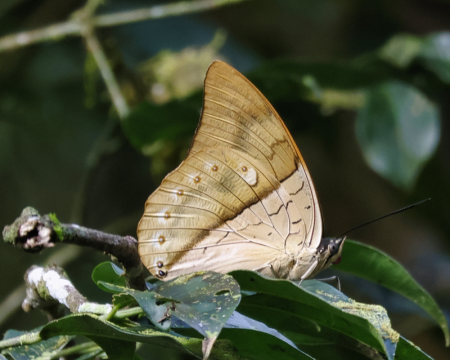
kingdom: Animalia
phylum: Arthropoda
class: Insecta
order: Lepidoptera
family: Nymphalidae
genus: Prepona
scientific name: Prepona meander
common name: White-spotted Prepona
